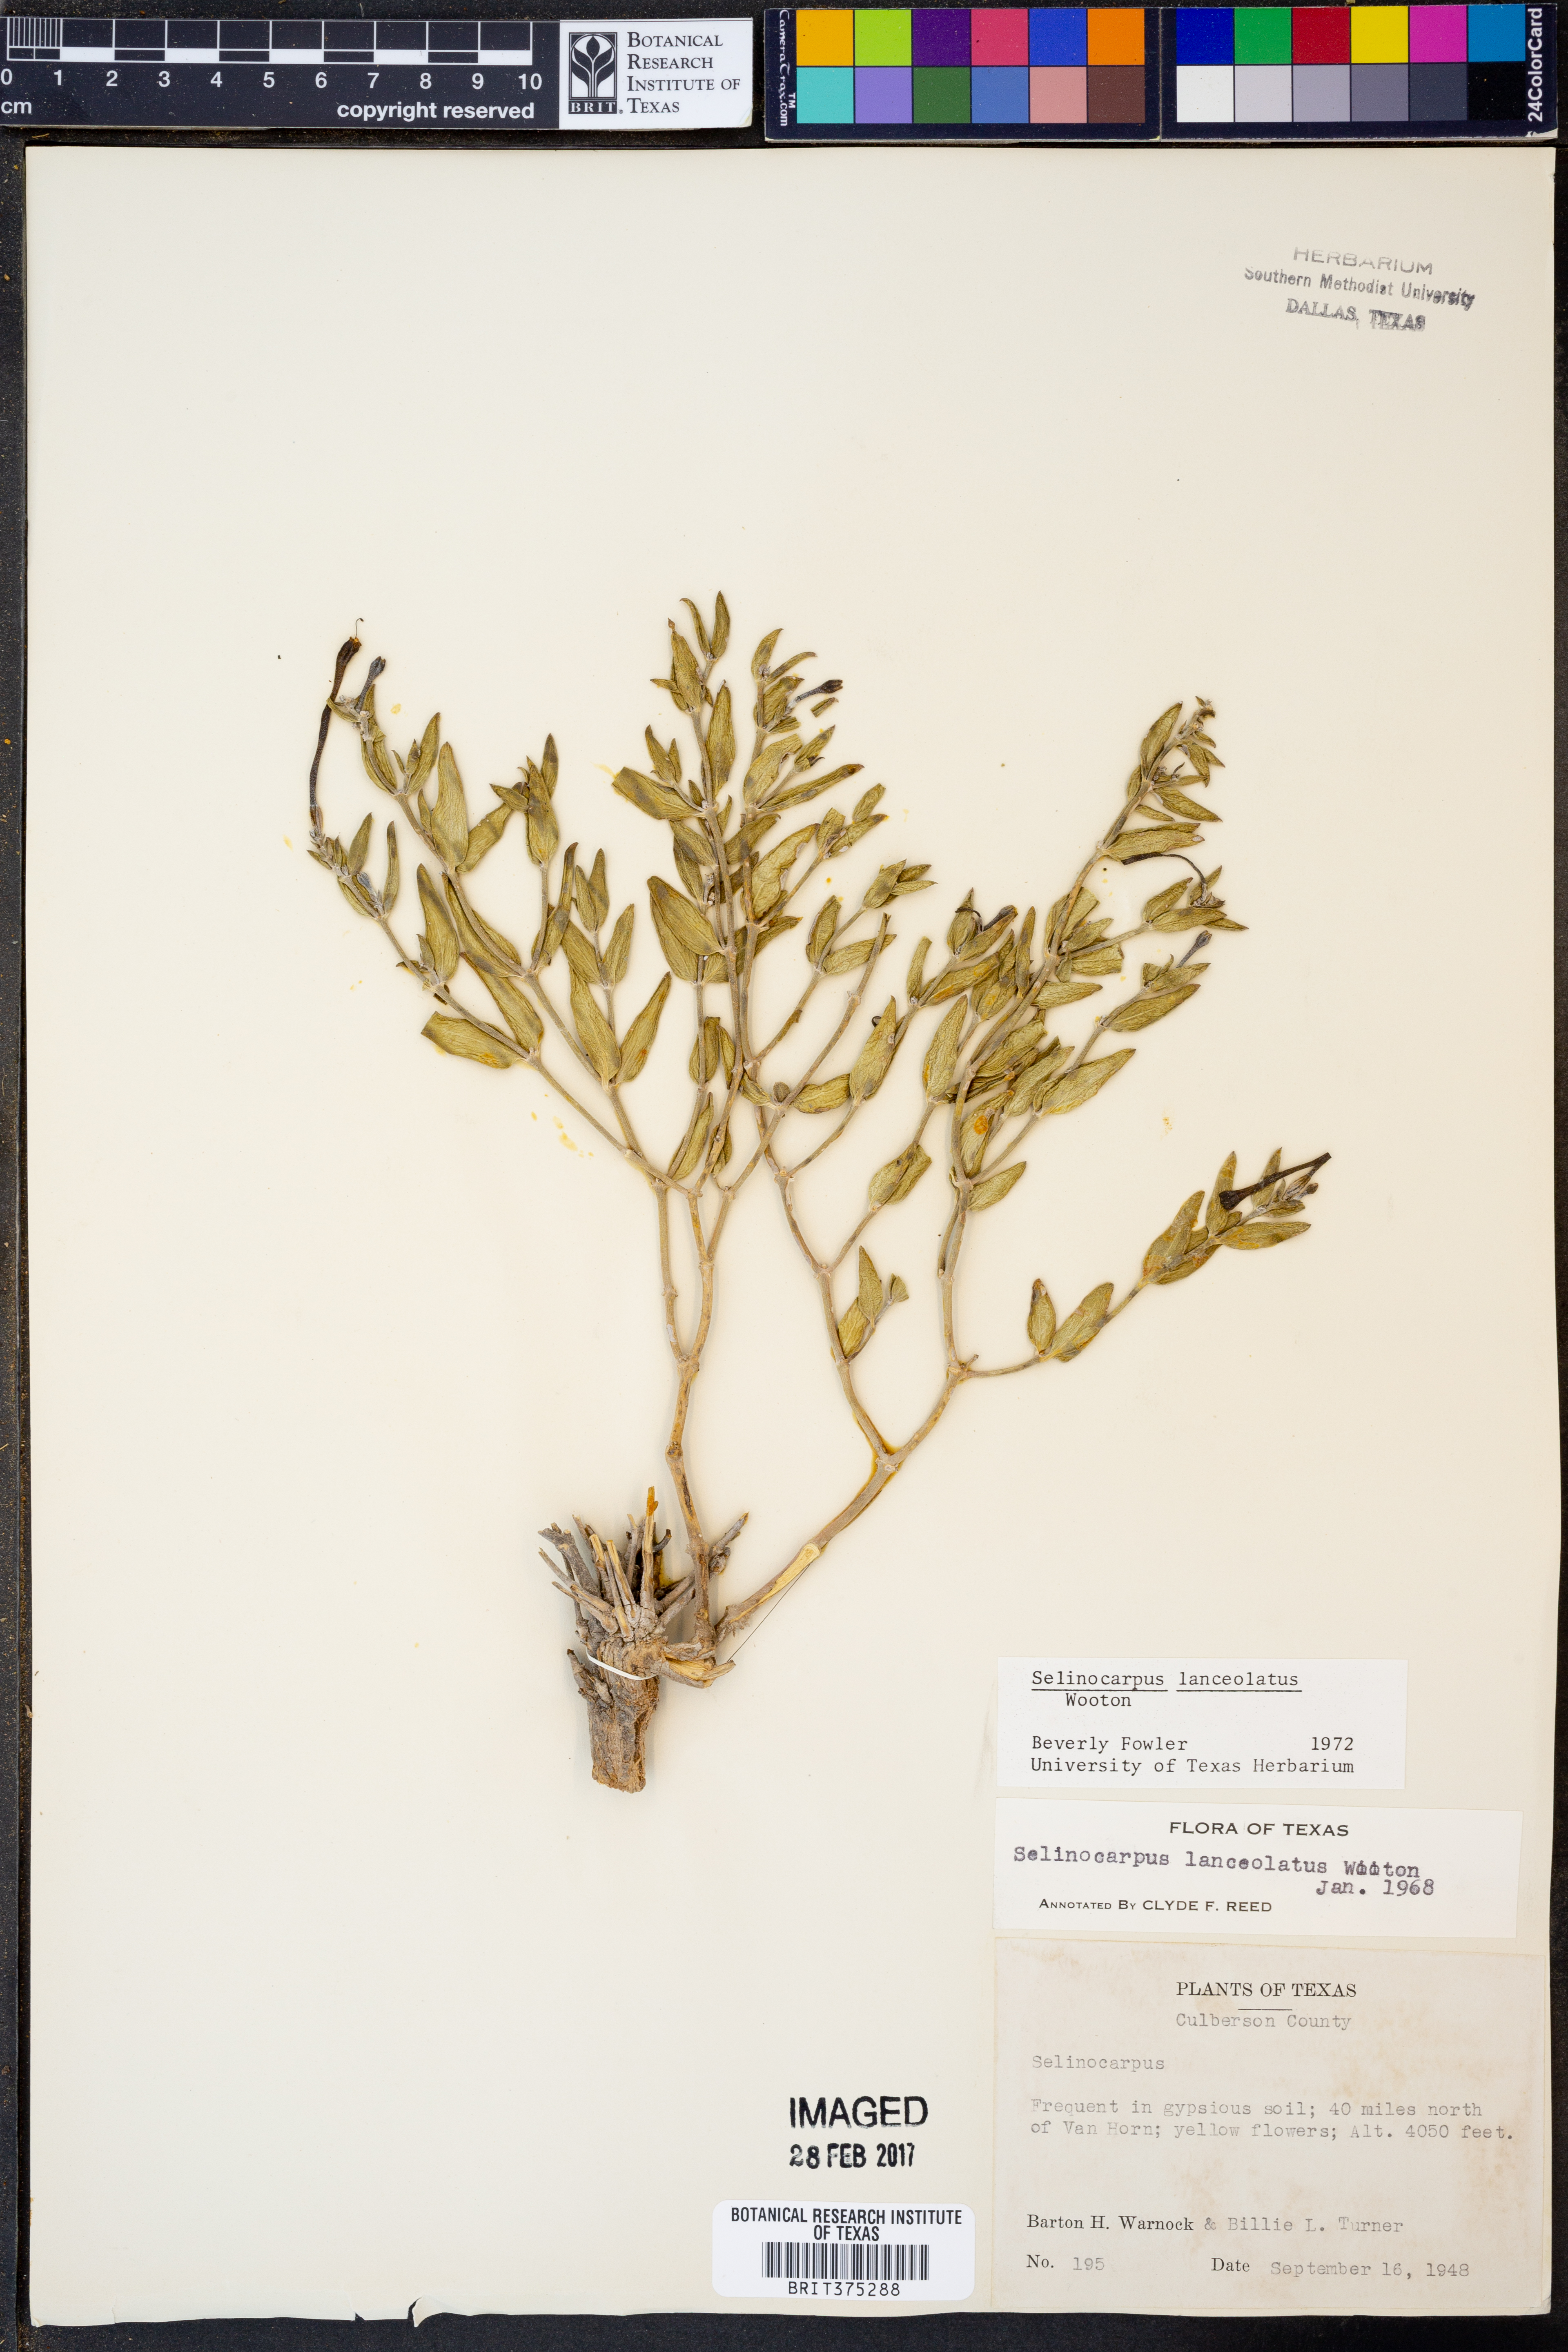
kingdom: Plantae
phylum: Tracheophyta
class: Magnoliopsida
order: Caryophyllales
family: Nyctaginaceae
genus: Acleisanthes
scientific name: Acleisanthes lanceolata
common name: Gypsum moonpod
